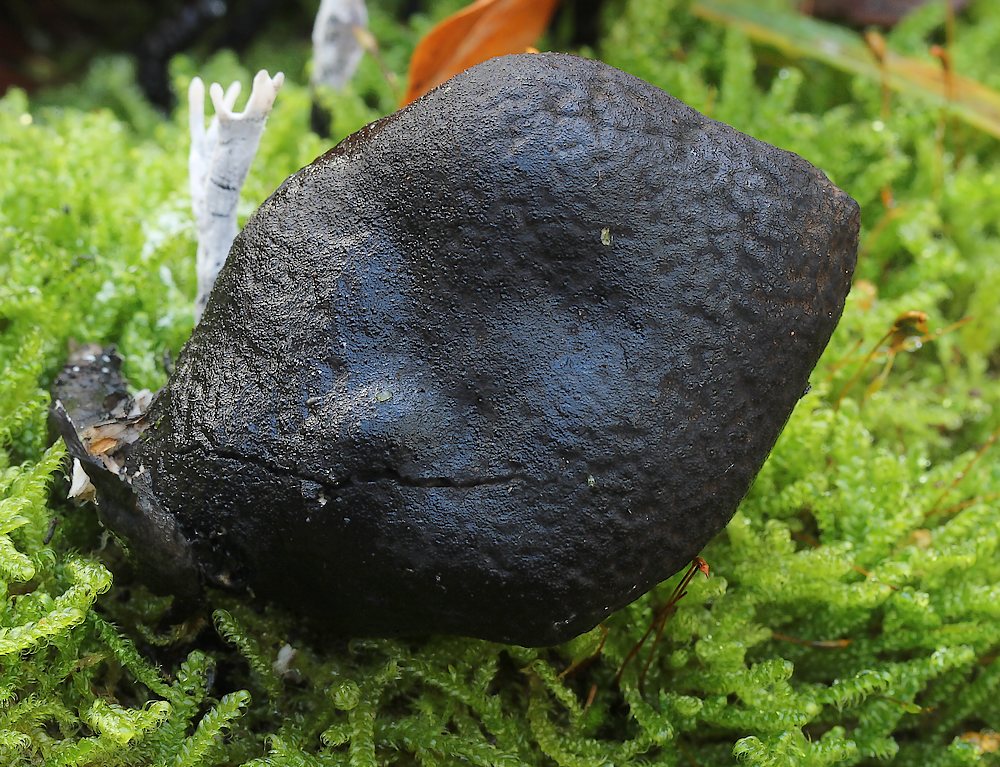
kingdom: Fungi
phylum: Ascomycota
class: Sordariomycetes
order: Xylariales
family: Xylariaceae
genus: Xylaria
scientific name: Xylaria polymorpha
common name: kølle-stødsvamp
